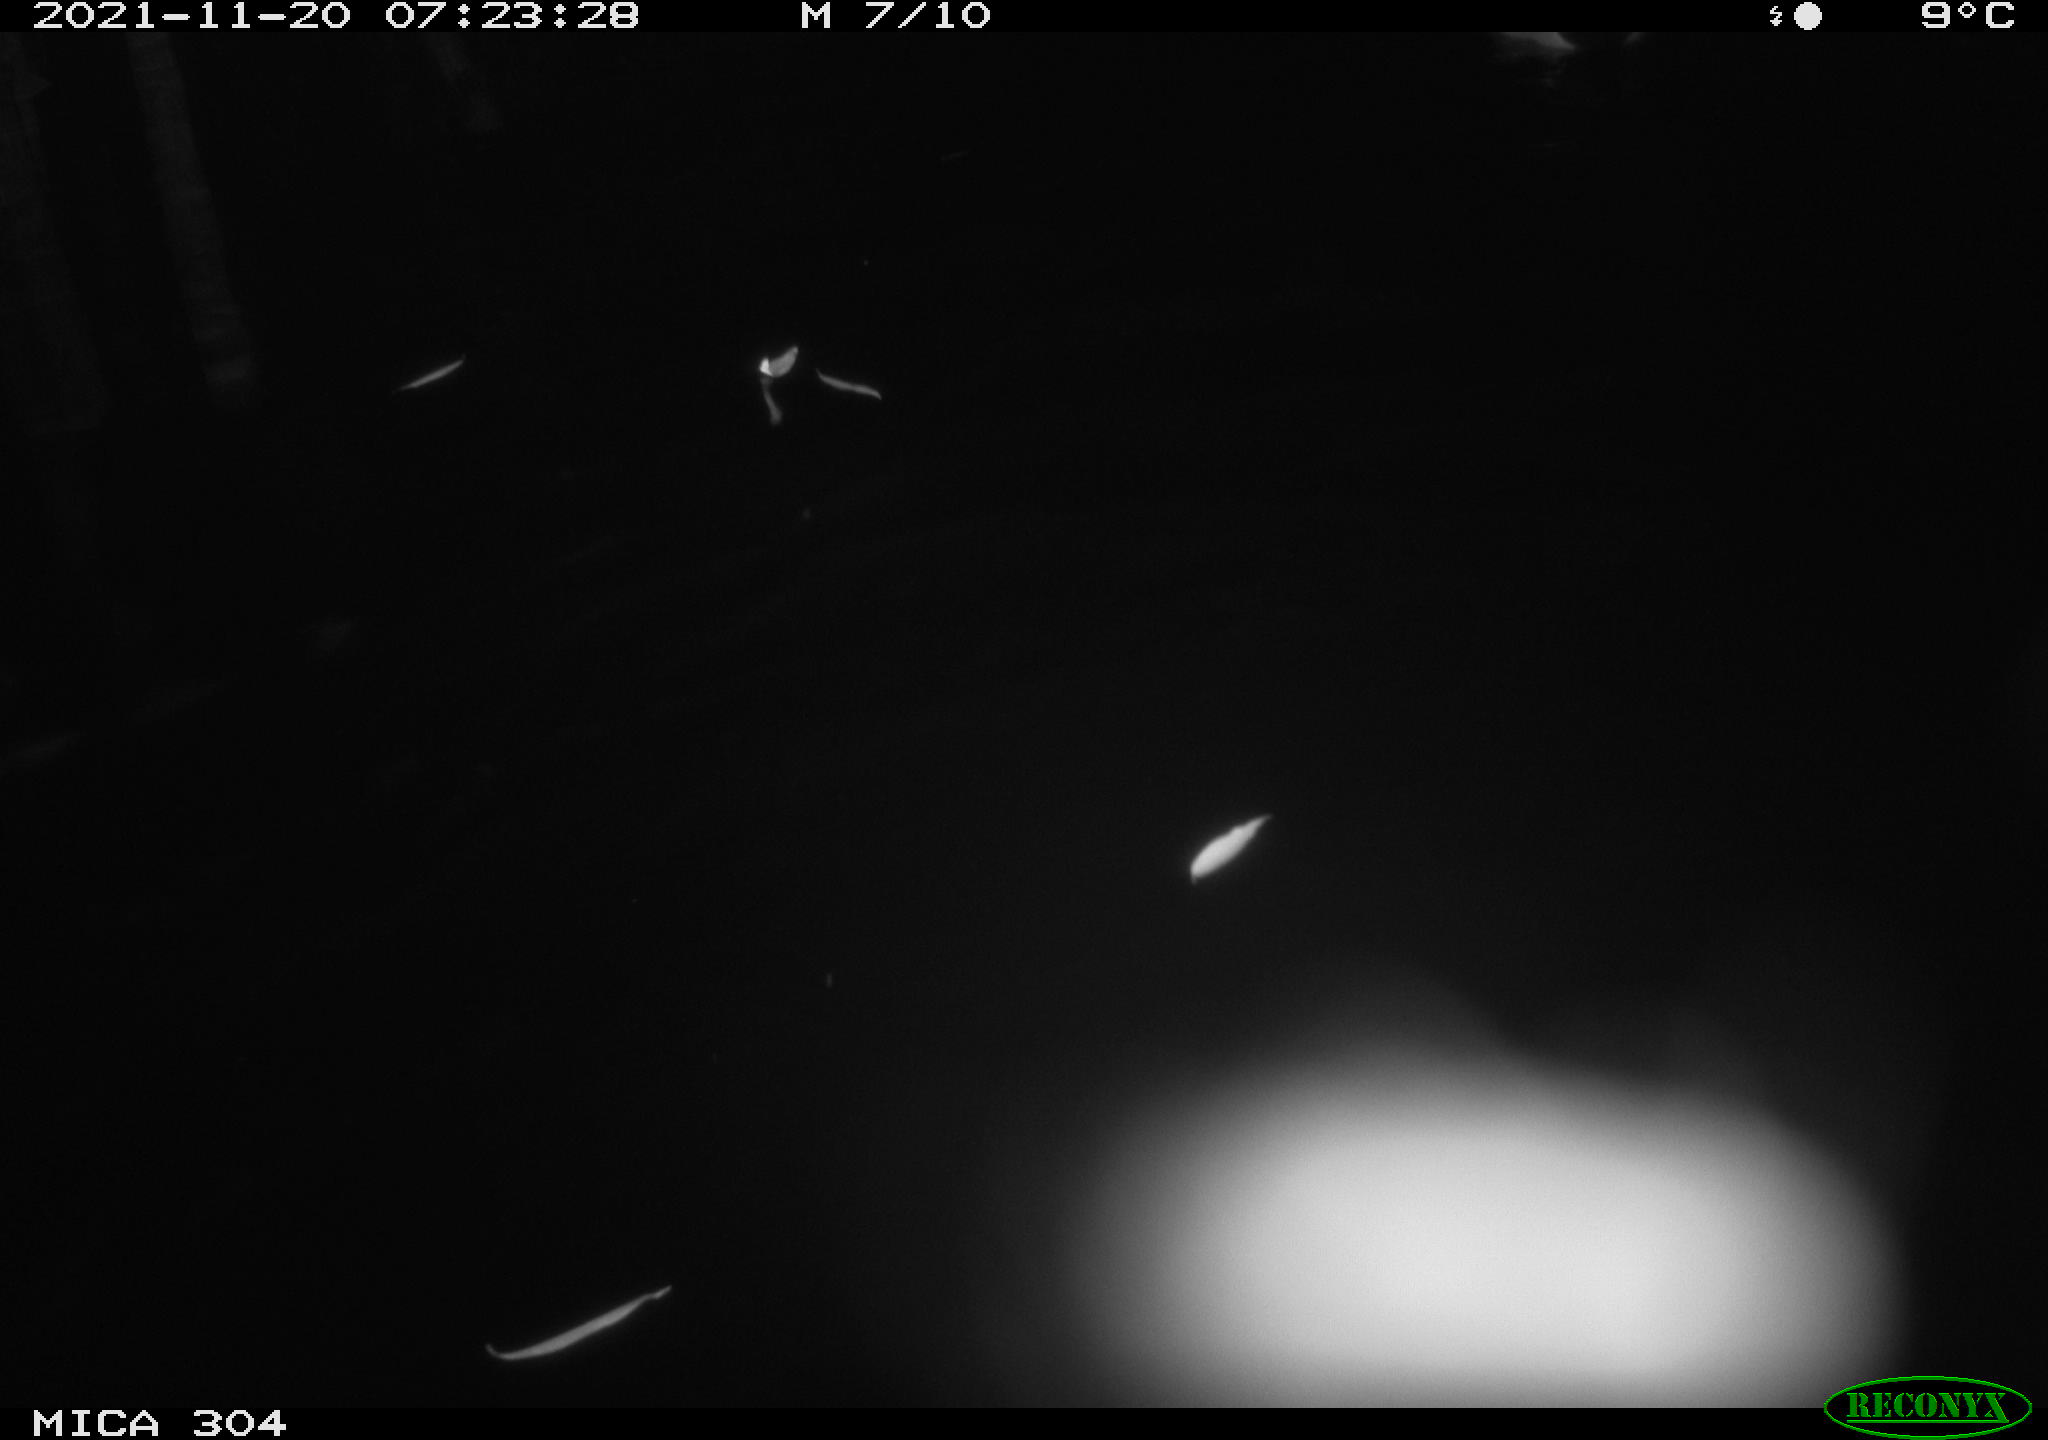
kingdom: Animalia
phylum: Chordata
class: Aves
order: Anseriformes
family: Anatidae
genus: Anas
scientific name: Anas platyrhynchos
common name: Mallard
